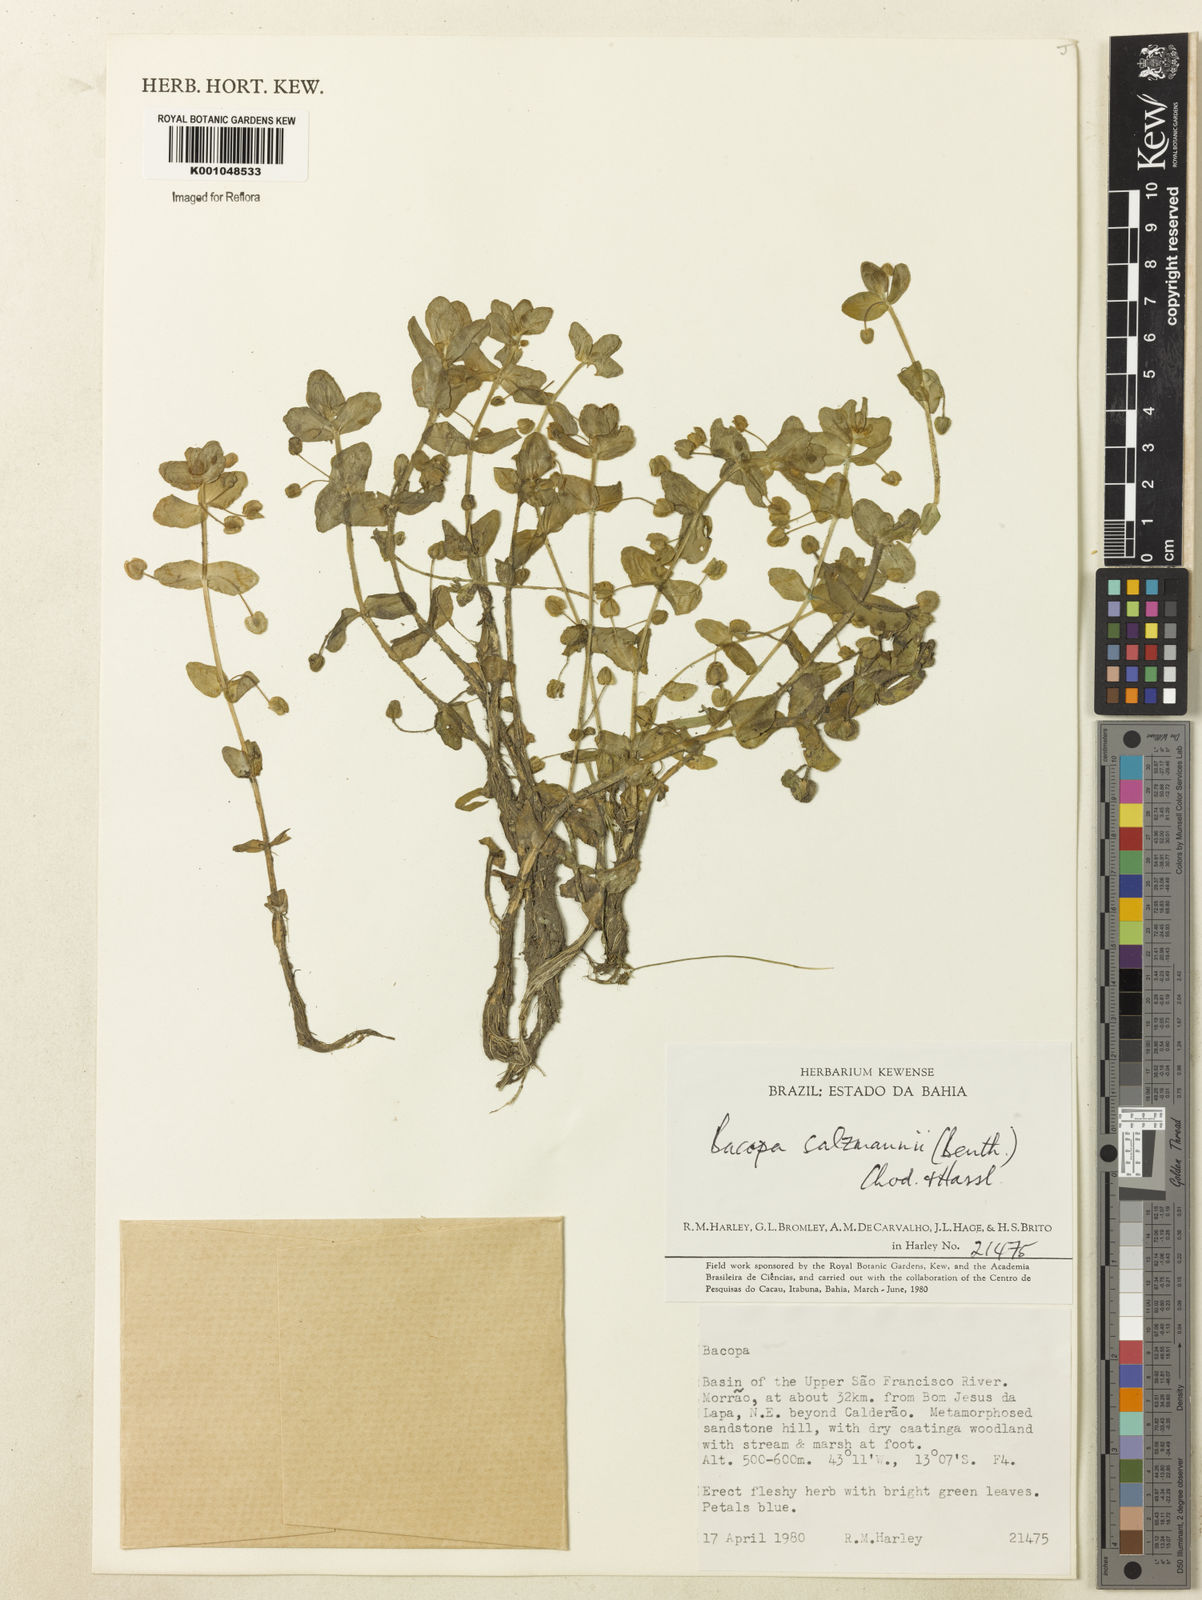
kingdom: Plantae
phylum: Tracheophyta
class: Magnoliopsida
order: Lamiales
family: Plantaginaceae
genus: Bacopa
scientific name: Bacopa salzmannii
